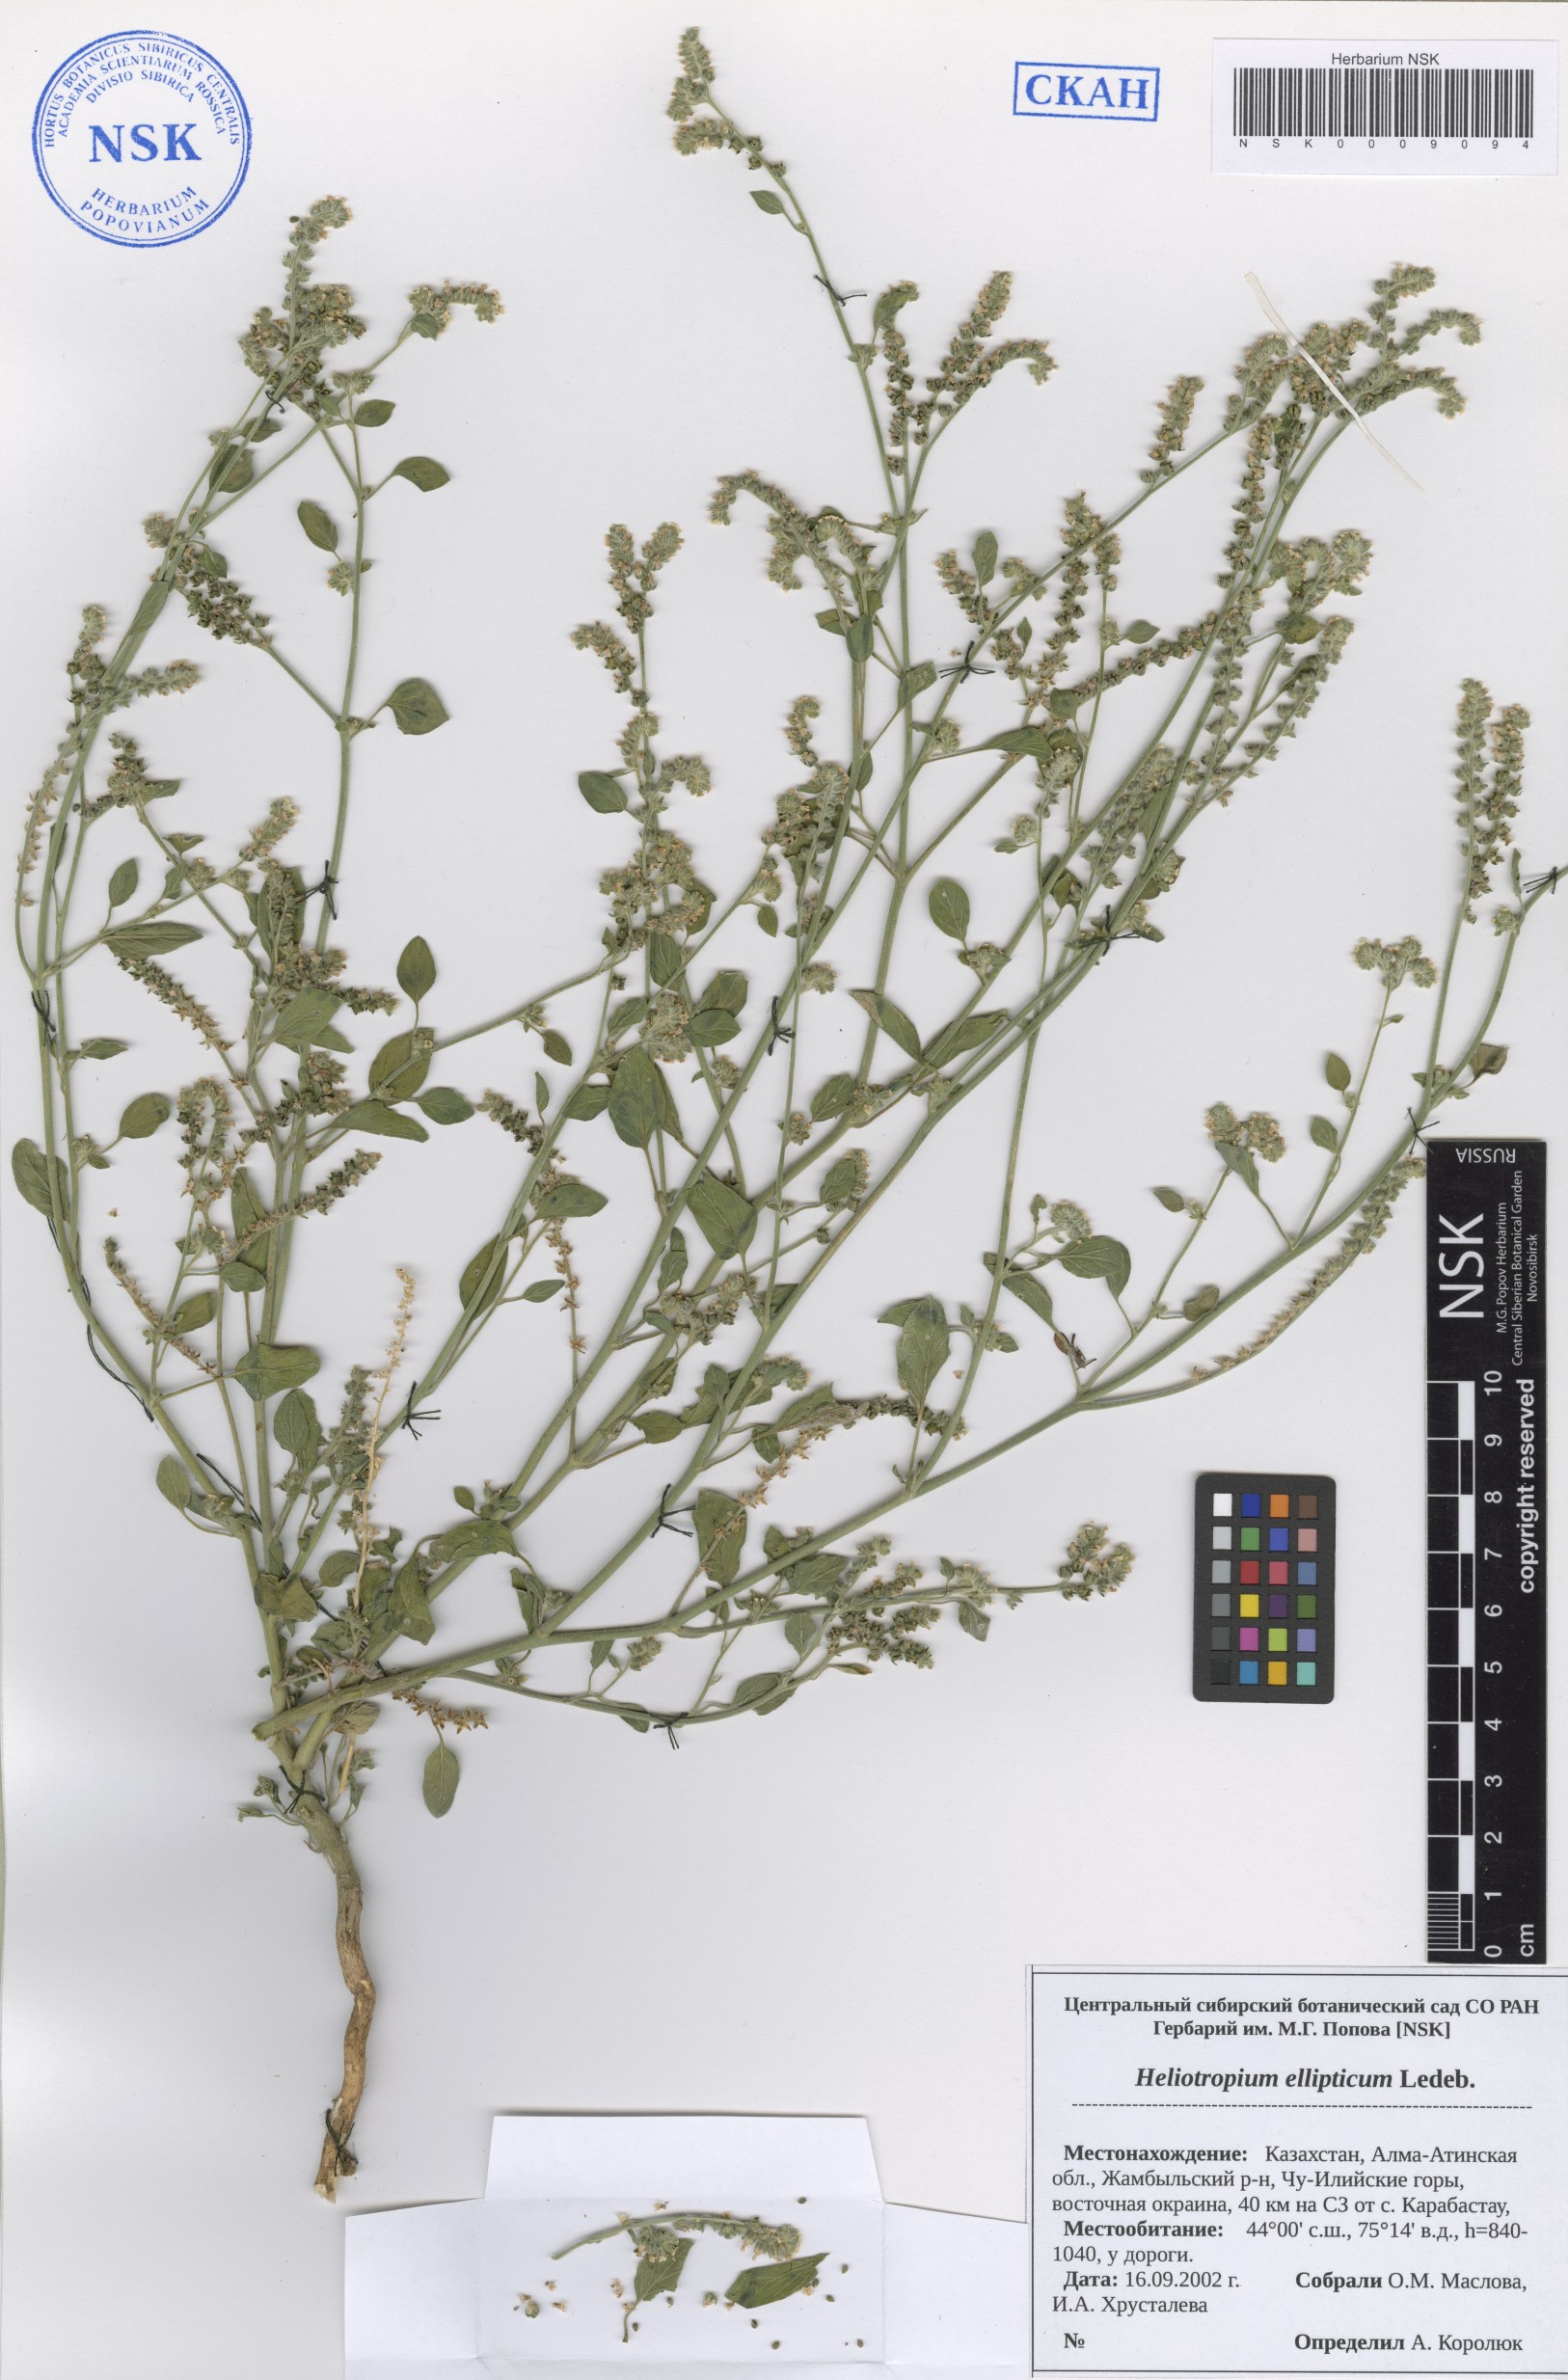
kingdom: Plantae
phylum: Tracheophyta
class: Magnoliopsida
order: Boraginales
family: Heliotropiaceae
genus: Heliotropium
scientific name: Heliotropium ellipticum
